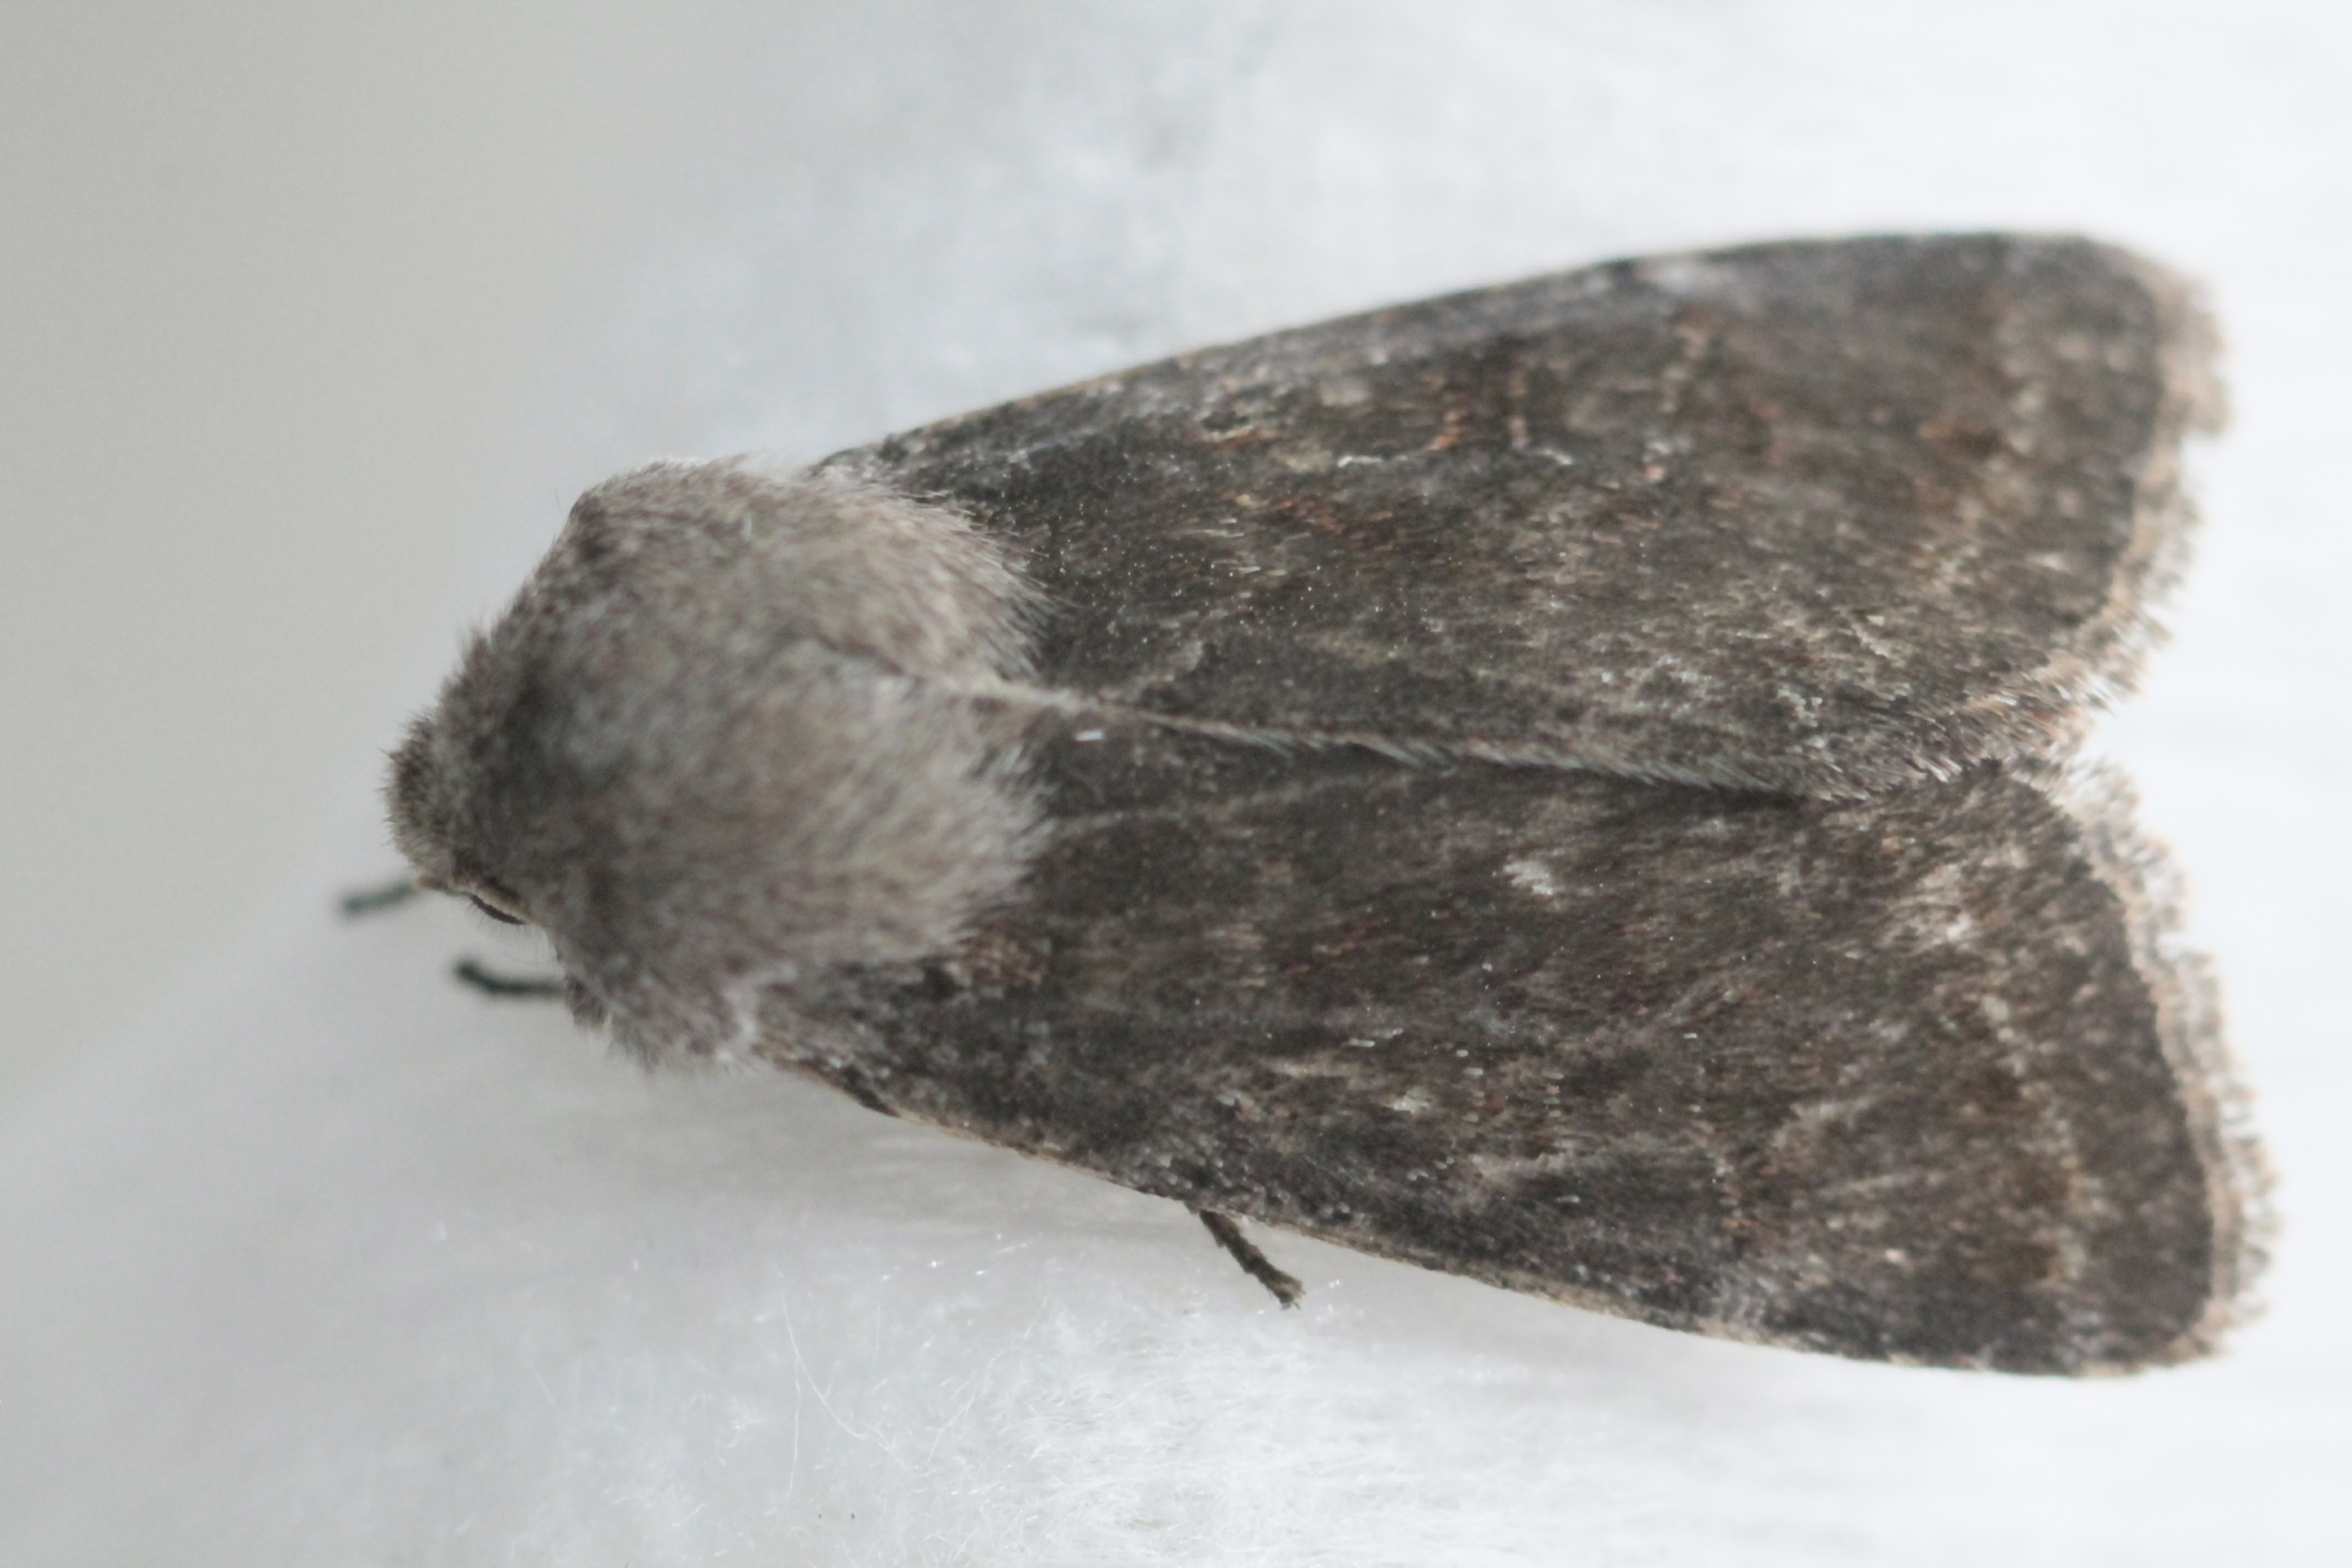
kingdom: Animalia
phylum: Arthropoda
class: Insecta
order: Lepidoptera
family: Noctuidae
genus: Orthosia
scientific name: Orthosia populeti
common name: Lead-coloured drab
